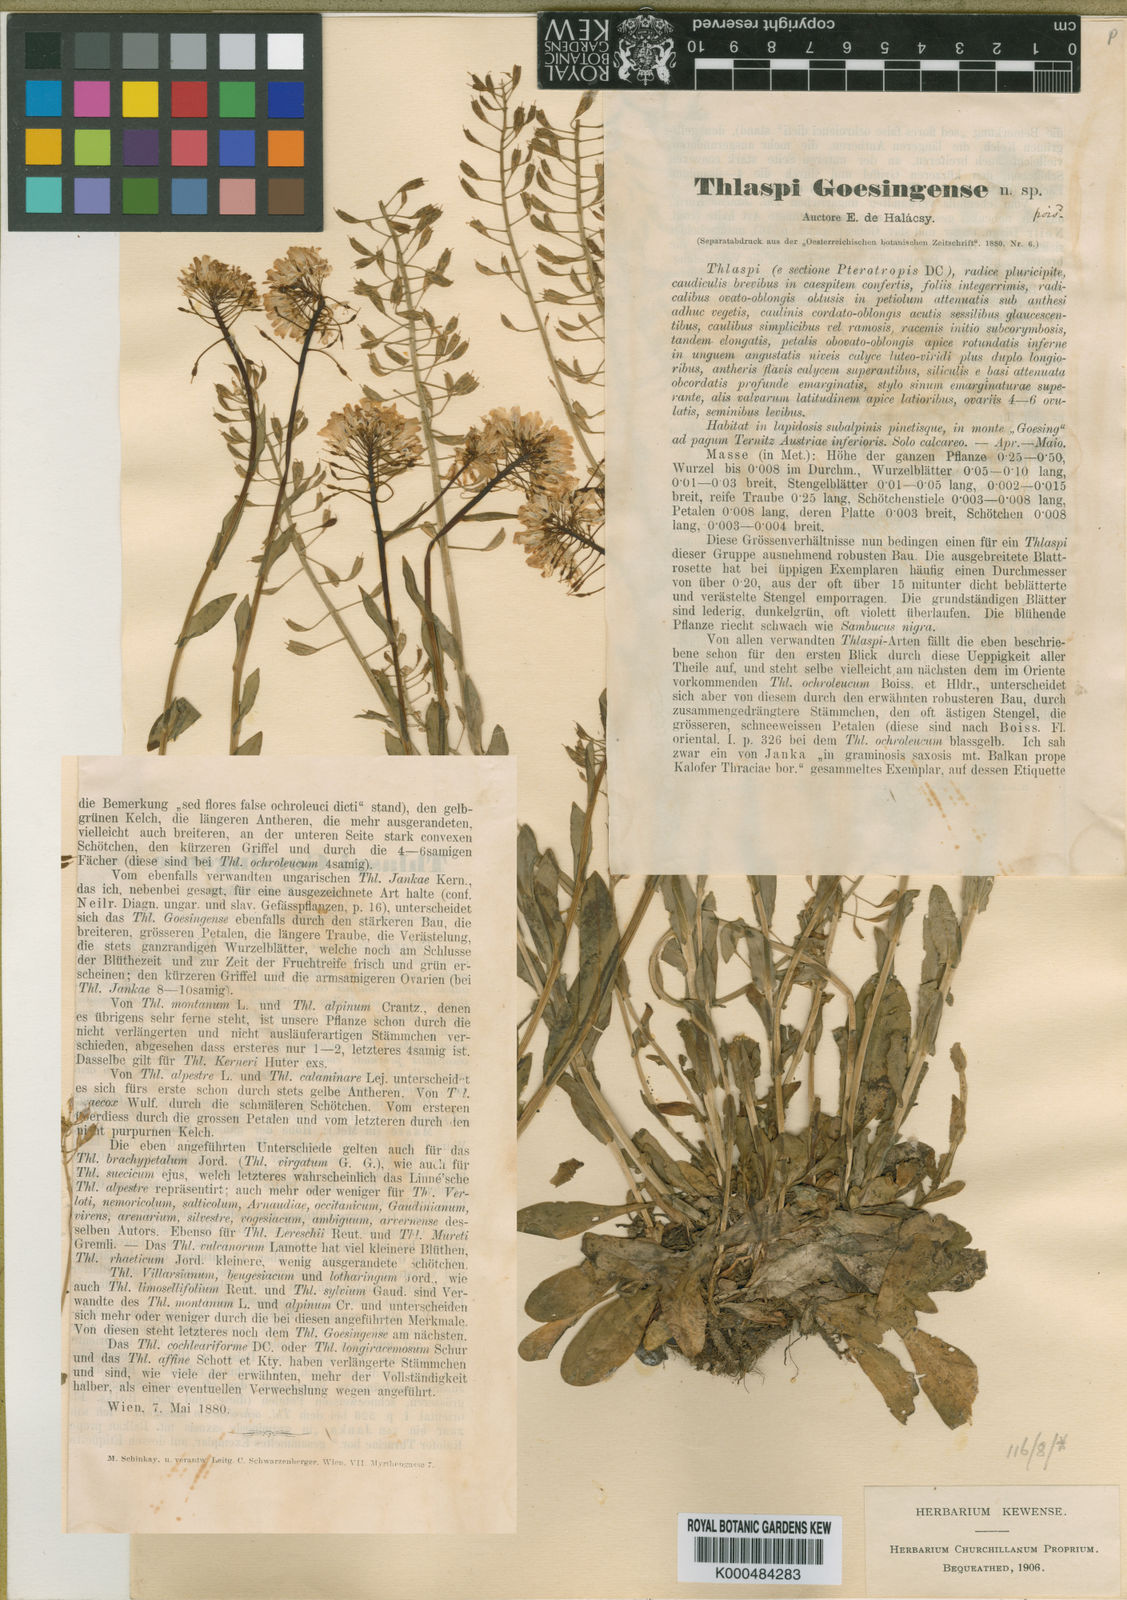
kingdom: Plantae
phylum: Tracheophyta
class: Magnoliopsida
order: Brassicales
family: Brassicaceae
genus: Noccaea
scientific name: Noccaea tymphaea
